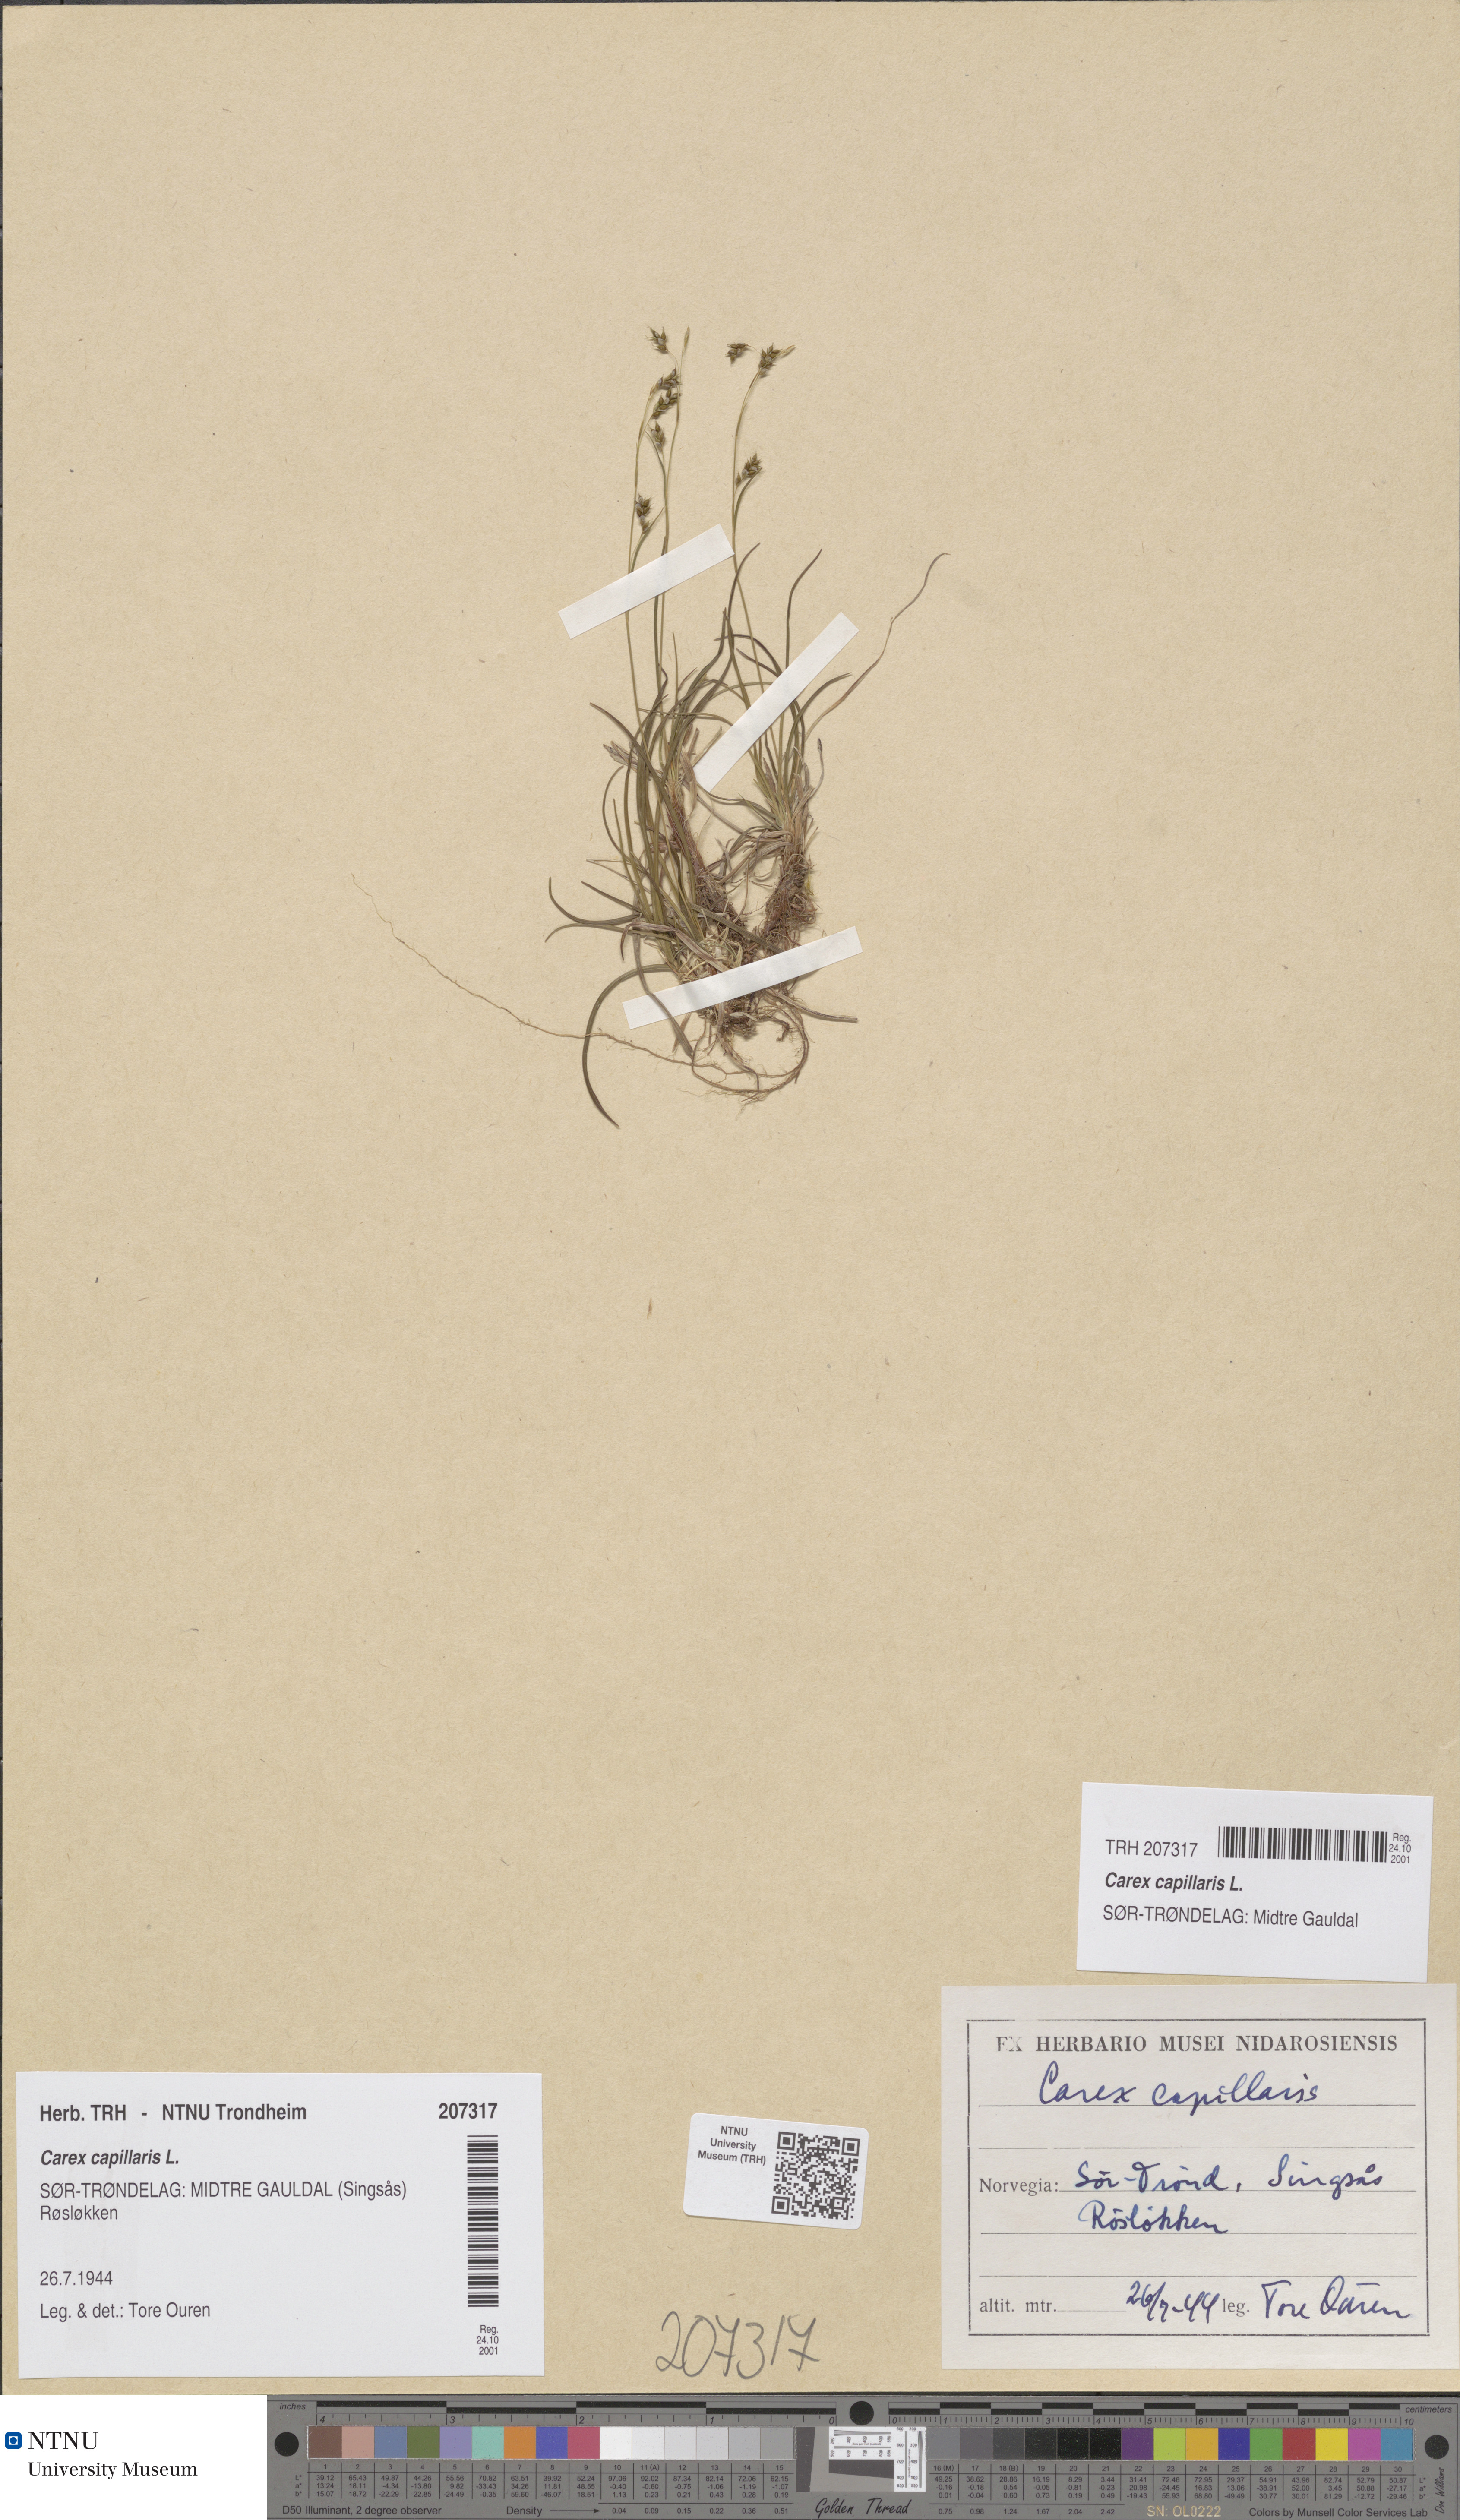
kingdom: Plantae
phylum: Tracheophyta
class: Liliopsida
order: Poales
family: Cyperaceae
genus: Carex
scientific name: Carex capillaris
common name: Hair sedge
